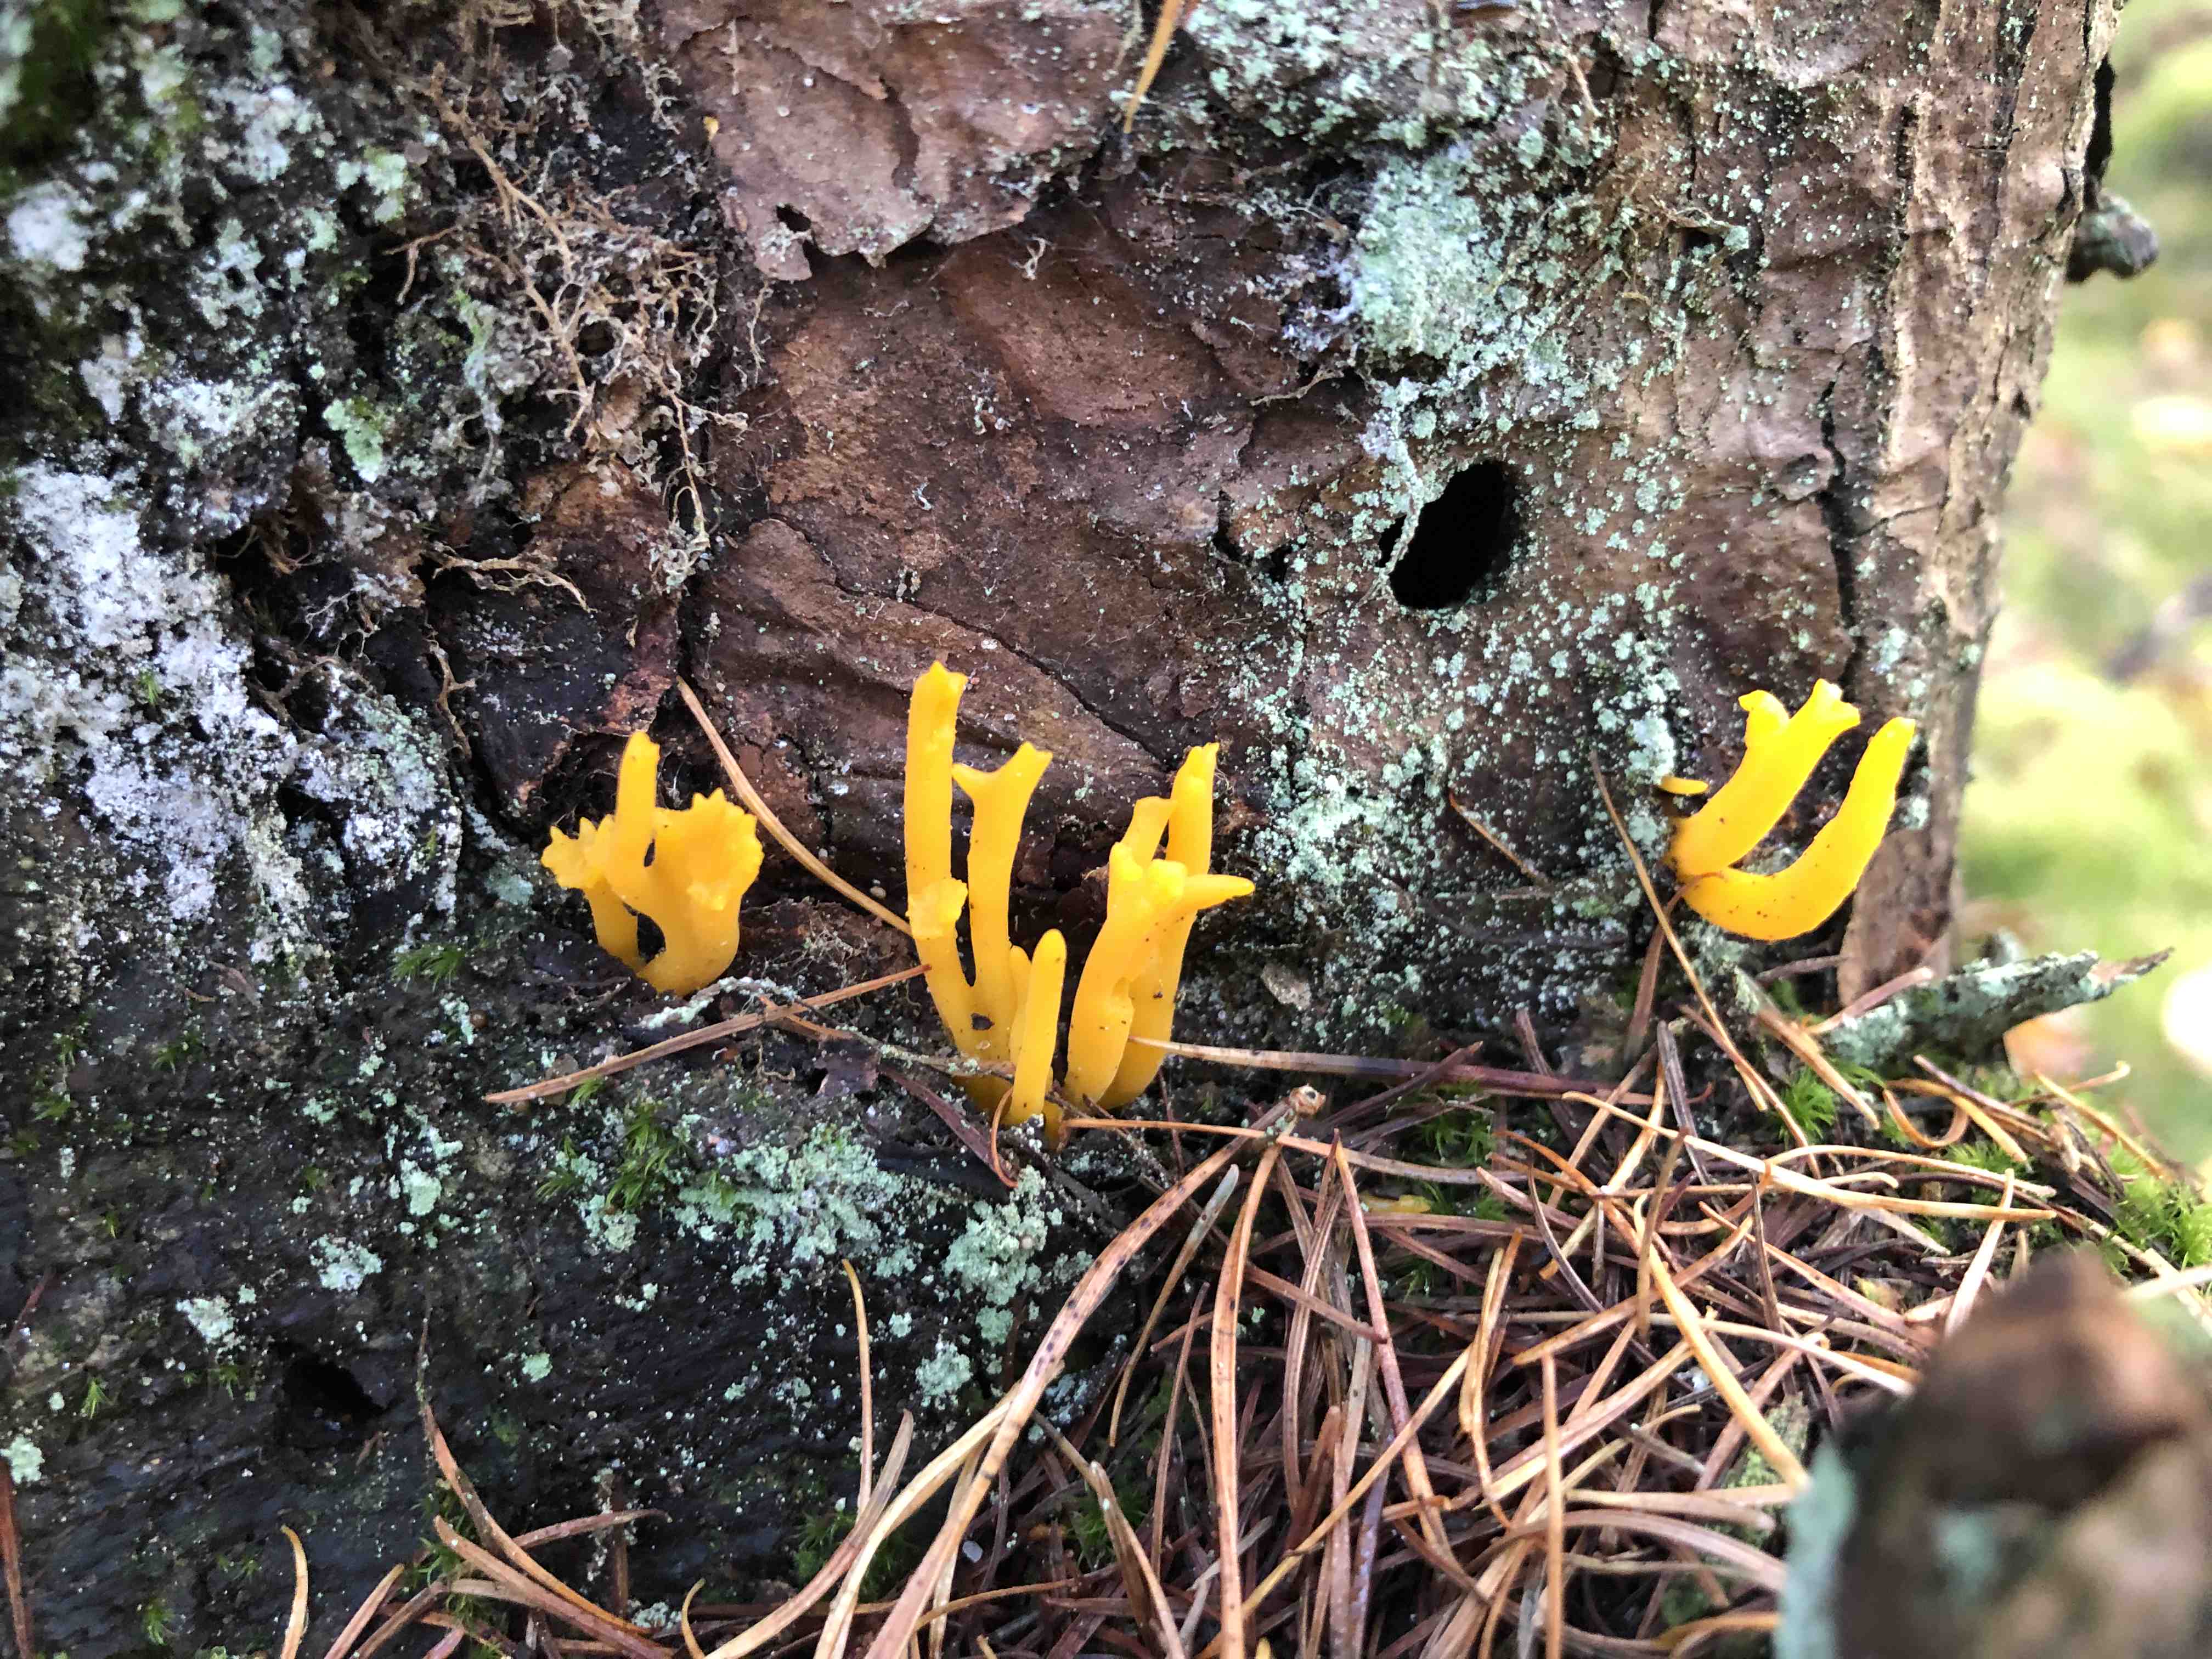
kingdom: Fungi
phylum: Basidiomycota
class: Dacrymycetes
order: Dacrymycetales
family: Dacrymycetaceae
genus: Calocera
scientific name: Calocera viscosa
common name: almindelig guldgaffel
